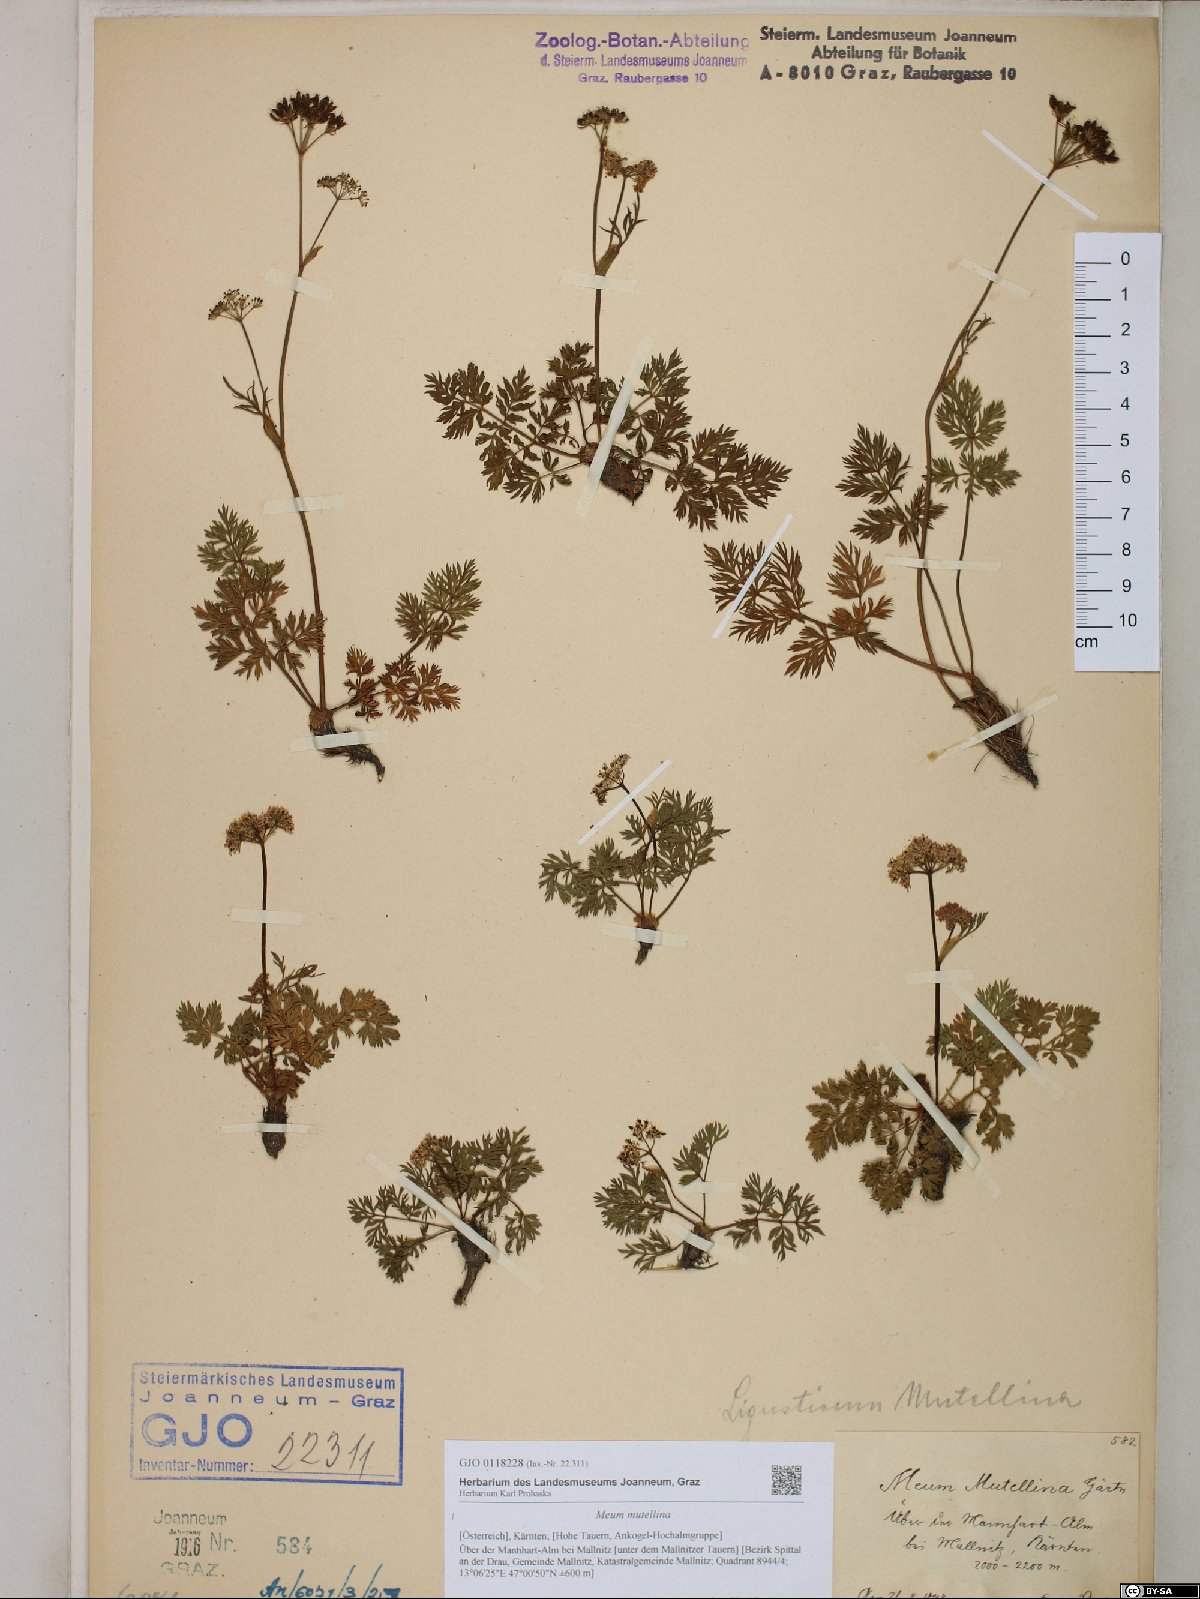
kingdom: Plantae
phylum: Tracheophyta
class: Magnoliopsida
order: Apiales
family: Apiaceae
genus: Mutellina
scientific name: Mutellina adonidifolia
